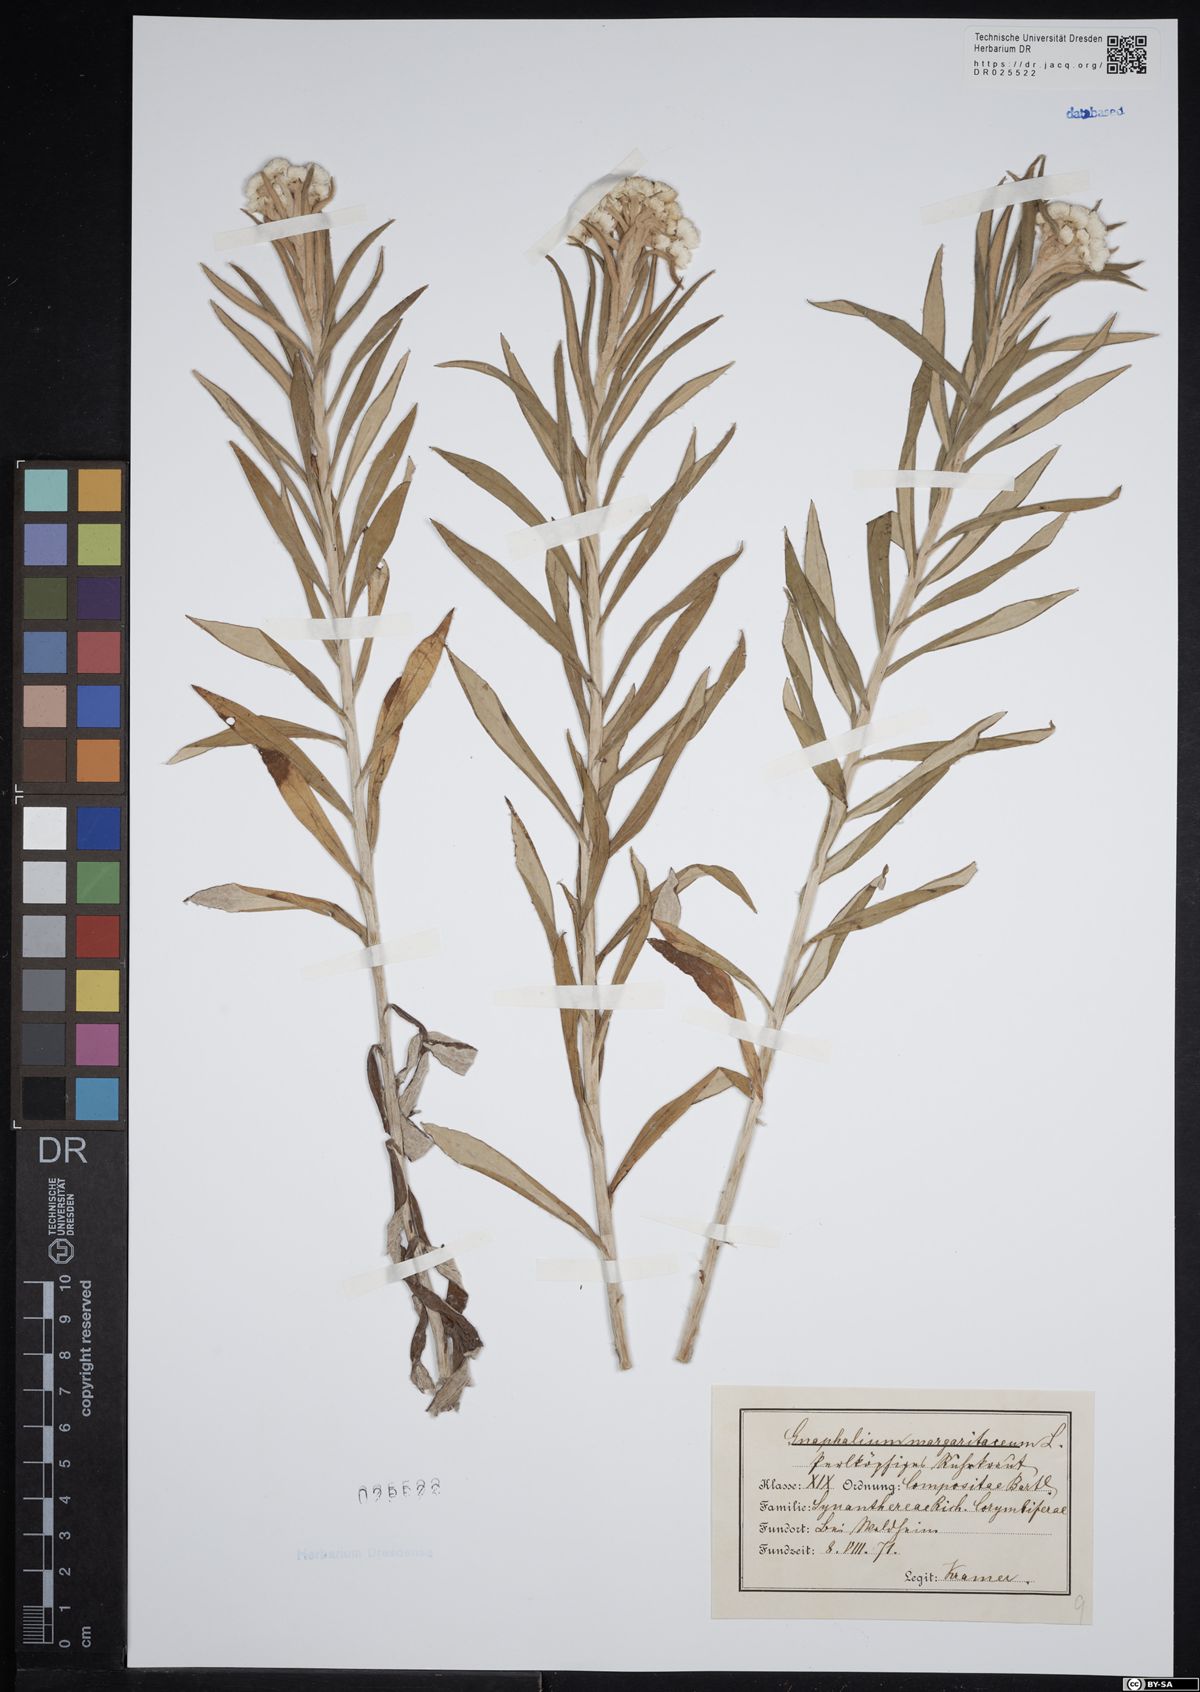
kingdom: Plantae
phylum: Tracheophyta
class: Magnoliopsida
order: Asterales
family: Asteraceae
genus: Anaphalis
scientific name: Anaphalis margaritacea
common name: Pearly everlasting
